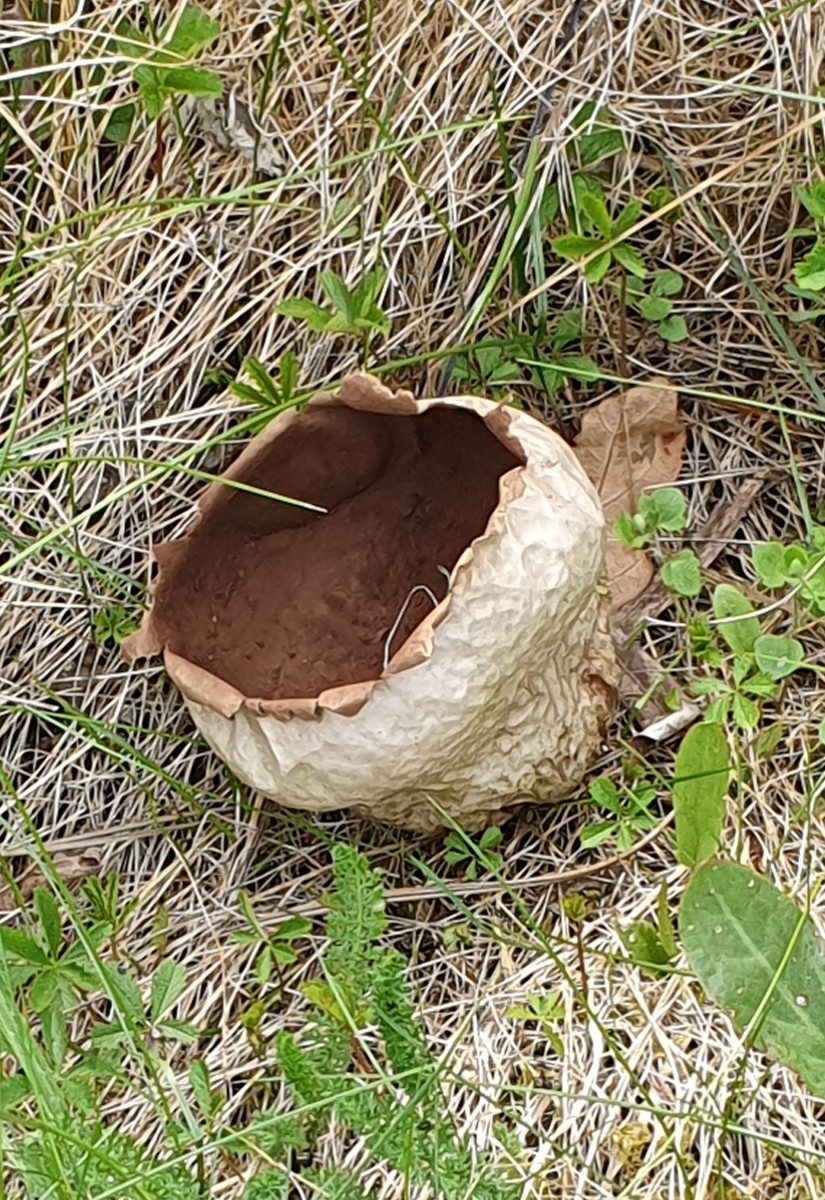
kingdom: Fungi
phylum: Basidiomycota
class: Agaricomycetes
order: Agaricales
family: Lycoperdaceae
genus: Bovistella
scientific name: Bovistella utriformis
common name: skællet støvbold
